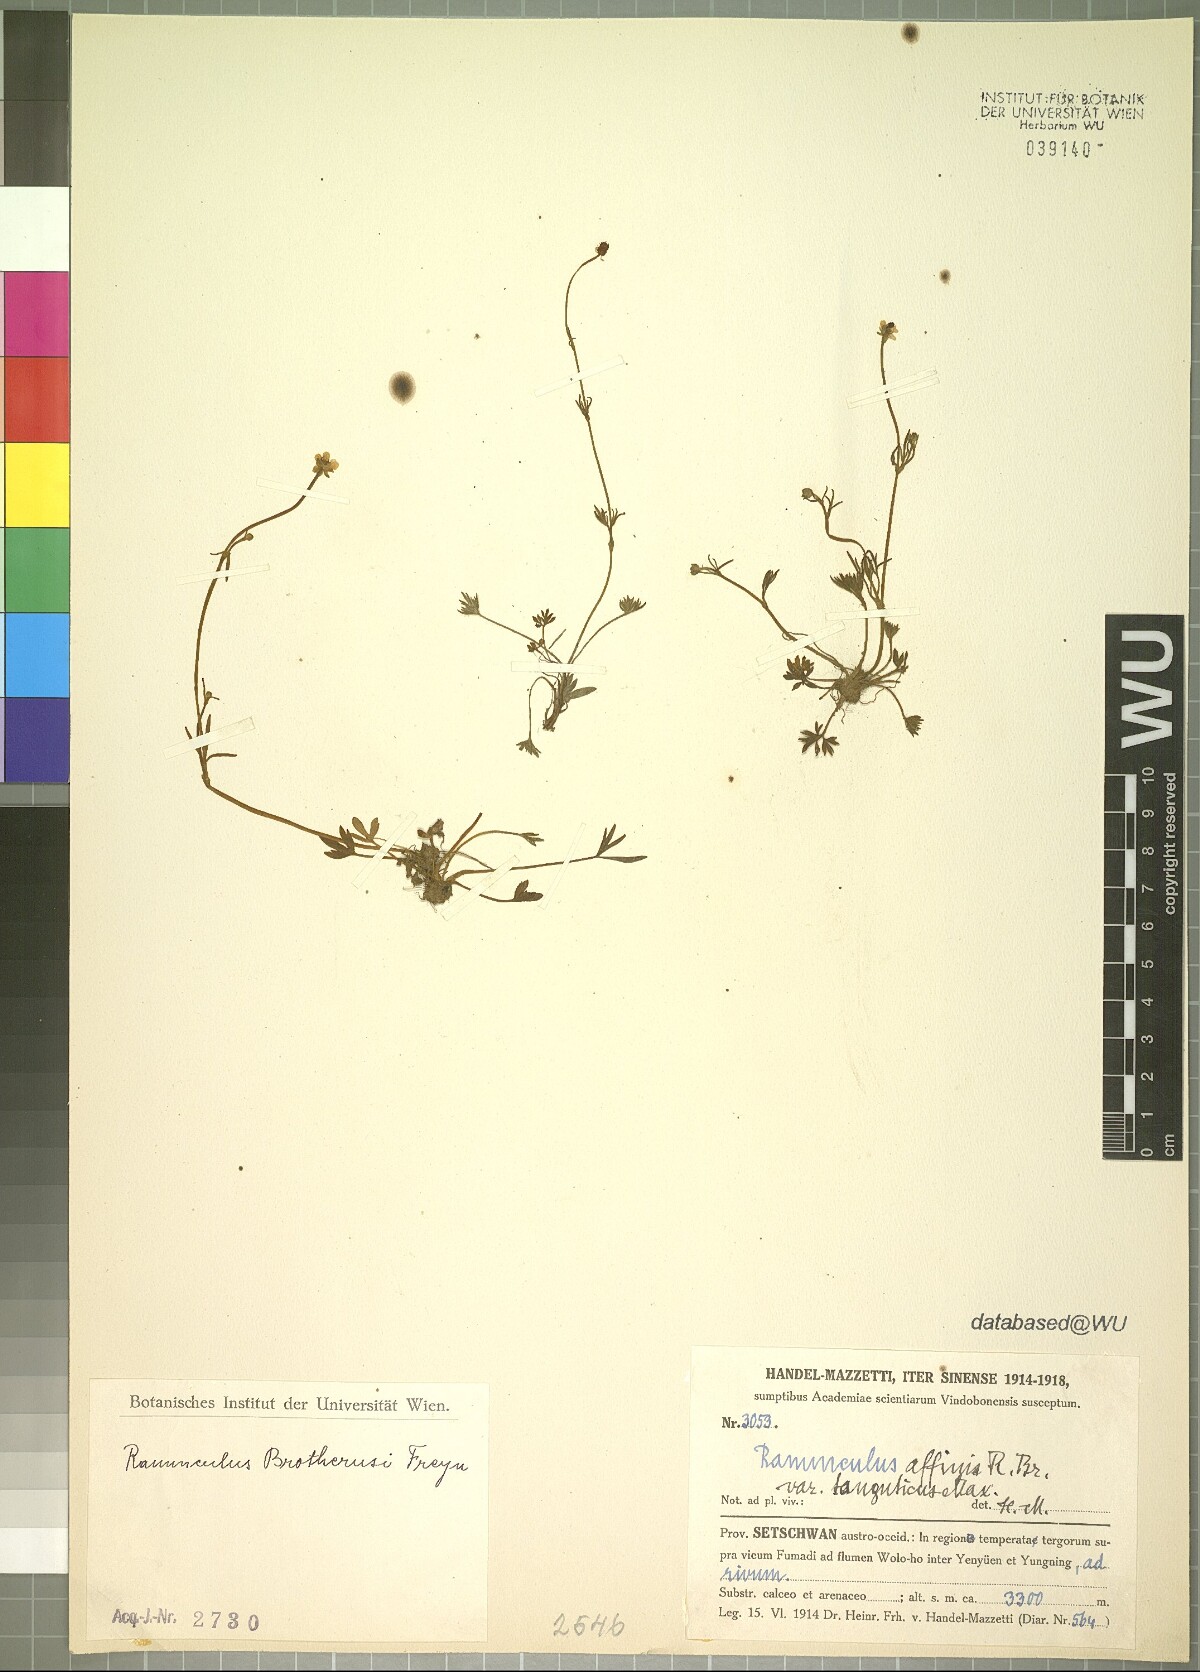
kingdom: Plantae
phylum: Tracheophyta
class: Magnoliopsida
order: Ranunculales
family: Ranunculaceae
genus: Ranunculus
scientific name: Ranunculus brotherusii
